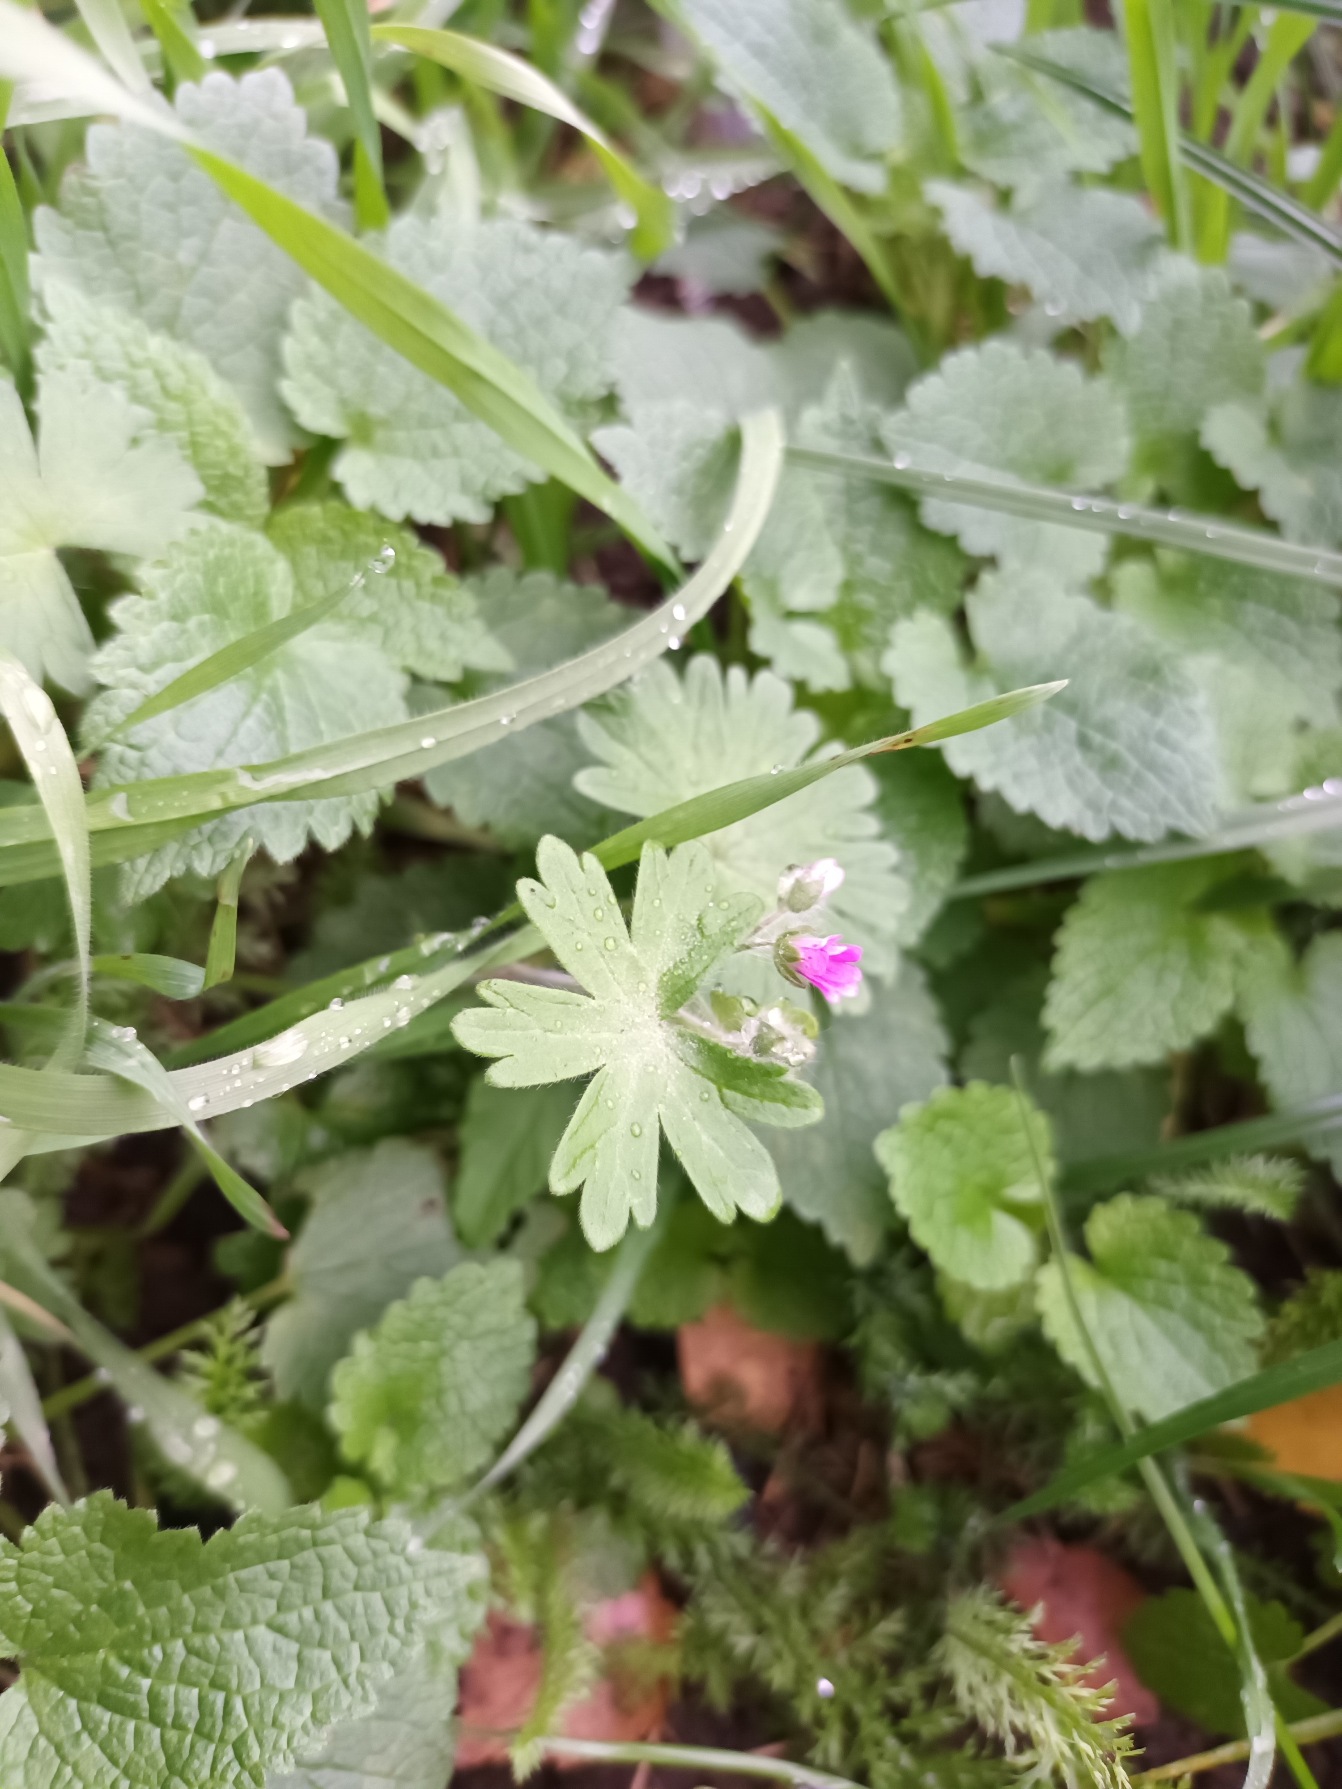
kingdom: Plantae
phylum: Tracheophyta
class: Magnoliopsida
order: Geraniales
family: Geraniaceae
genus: Geranium
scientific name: Geranium molle
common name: Blød storkenæb
